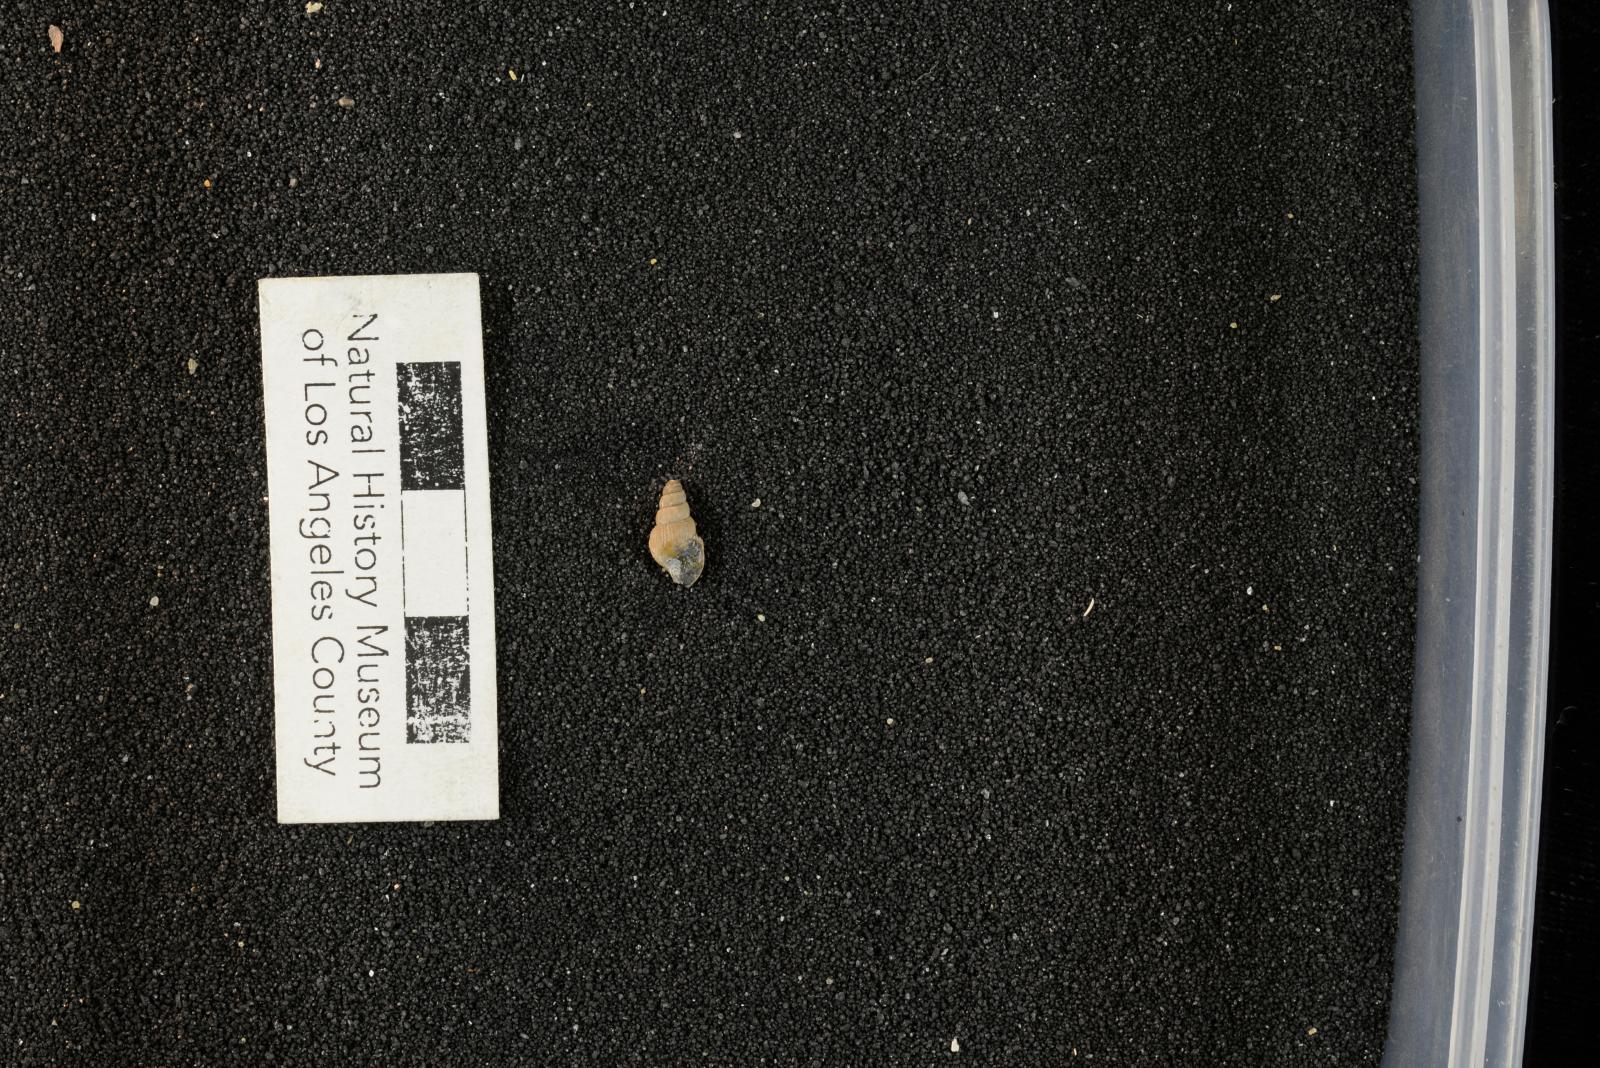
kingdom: Animalia
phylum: Mollusca
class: Gastropoda
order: Littorinimorpha
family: Aporrhaidae
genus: Latiala
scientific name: Latiala sigma
